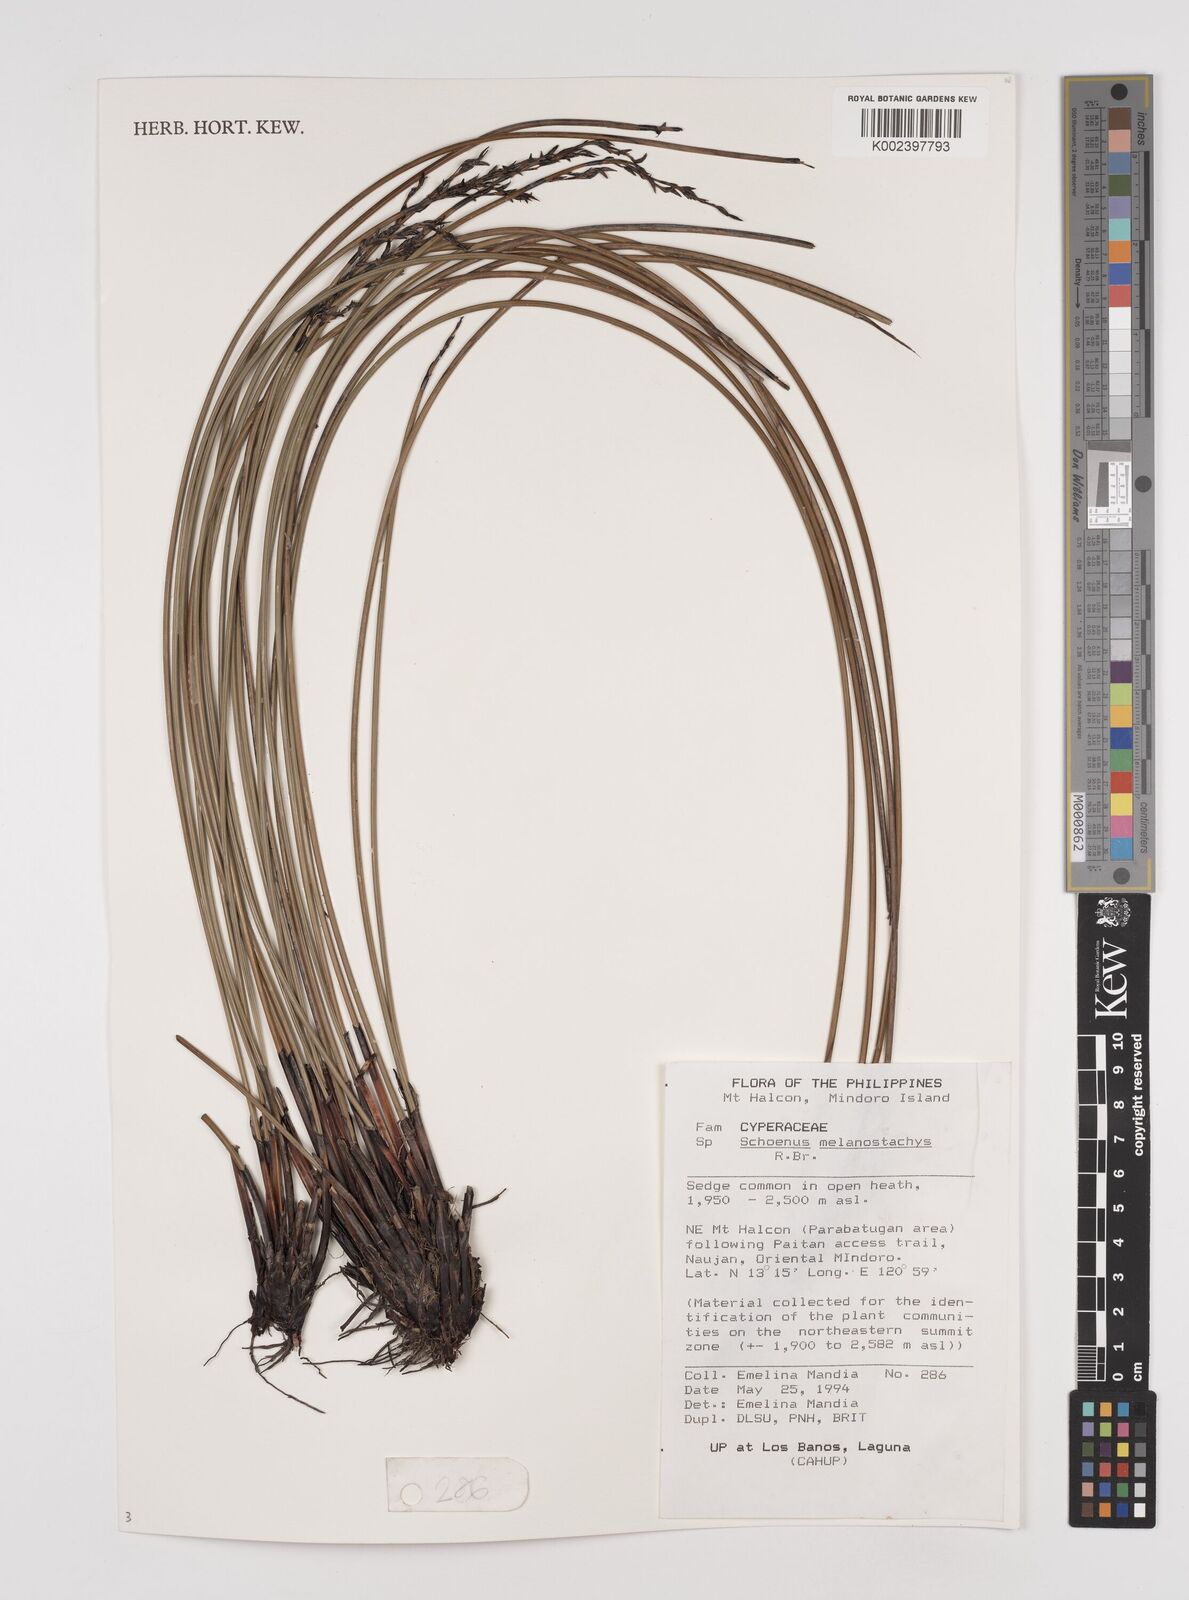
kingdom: Plantae
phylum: Tracheophyta
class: Liliopsida
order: Poales
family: Cyperaceae
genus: Schoenus
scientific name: Schoenus melanostachys
